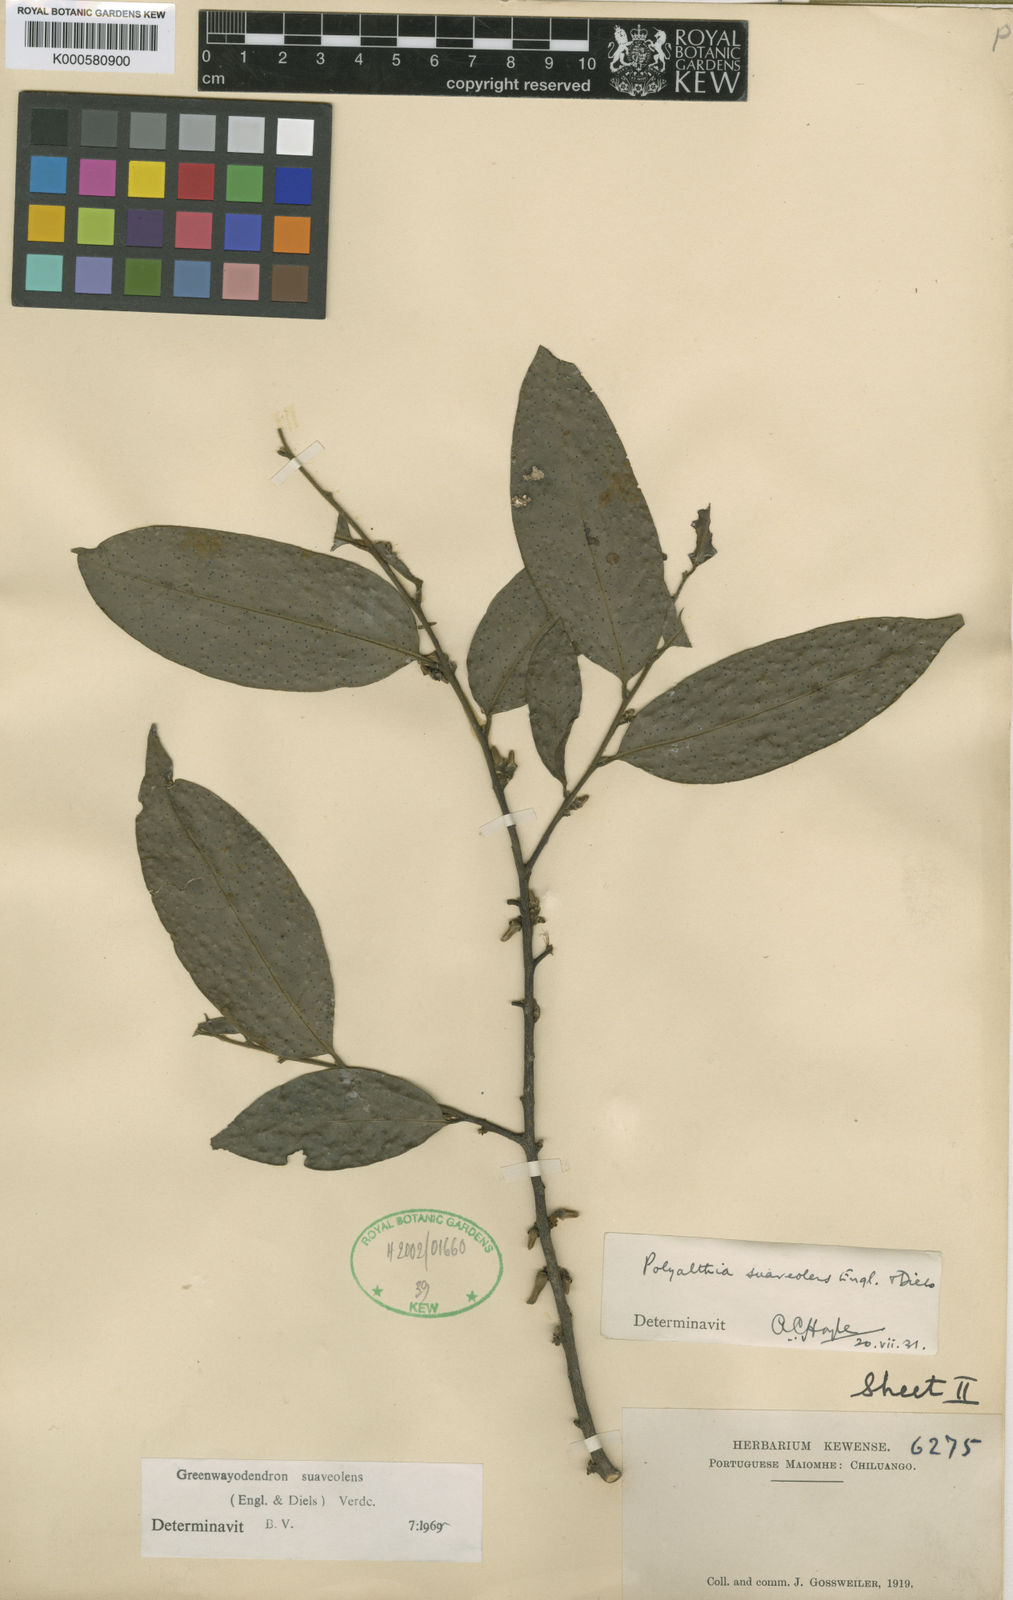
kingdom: Plantae
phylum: Tracheophyta
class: Magnoliopsida
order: Magnoliales
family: Annonaceae
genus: Greenwayodendron
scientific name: Greenwayodendron suaveolens
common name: Molinda
